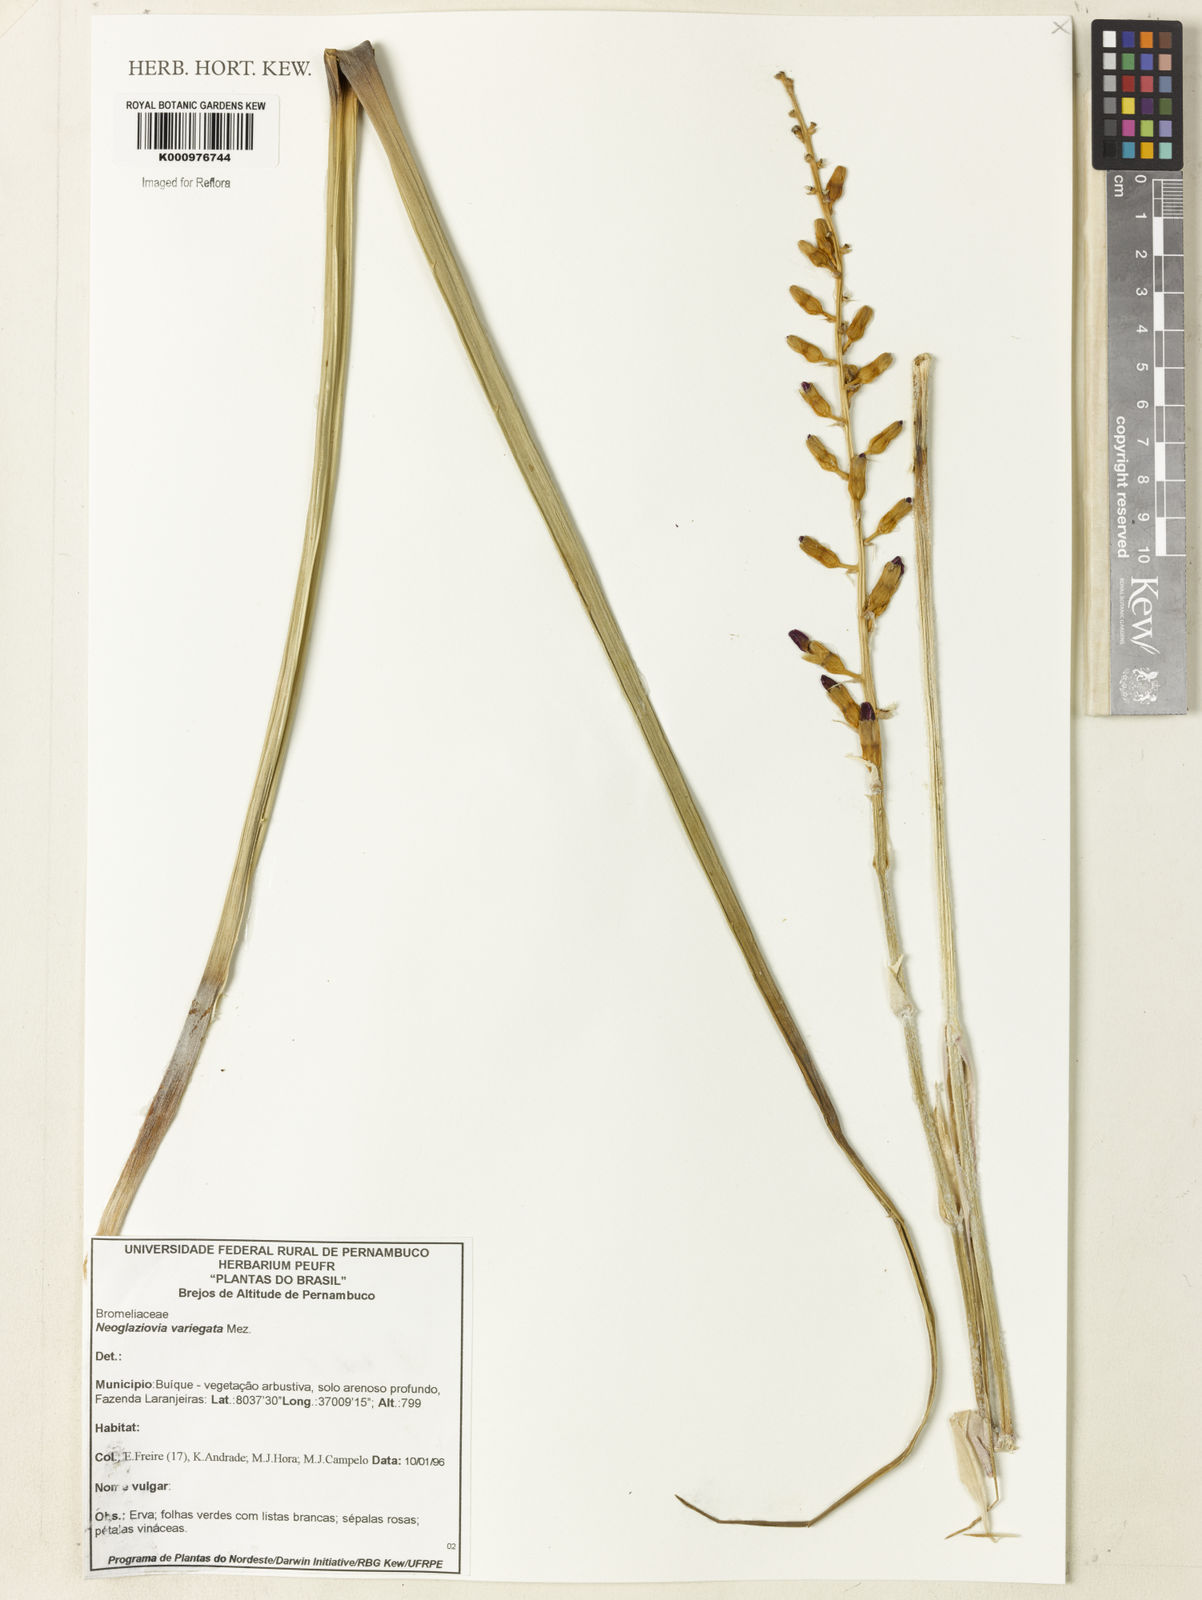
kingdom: Plantae
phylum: Tracheophyta
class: Liliopsida
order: Poales
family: Bromeliaceae
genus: Neoglaziovia
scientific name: Neoglaziovia variegata
